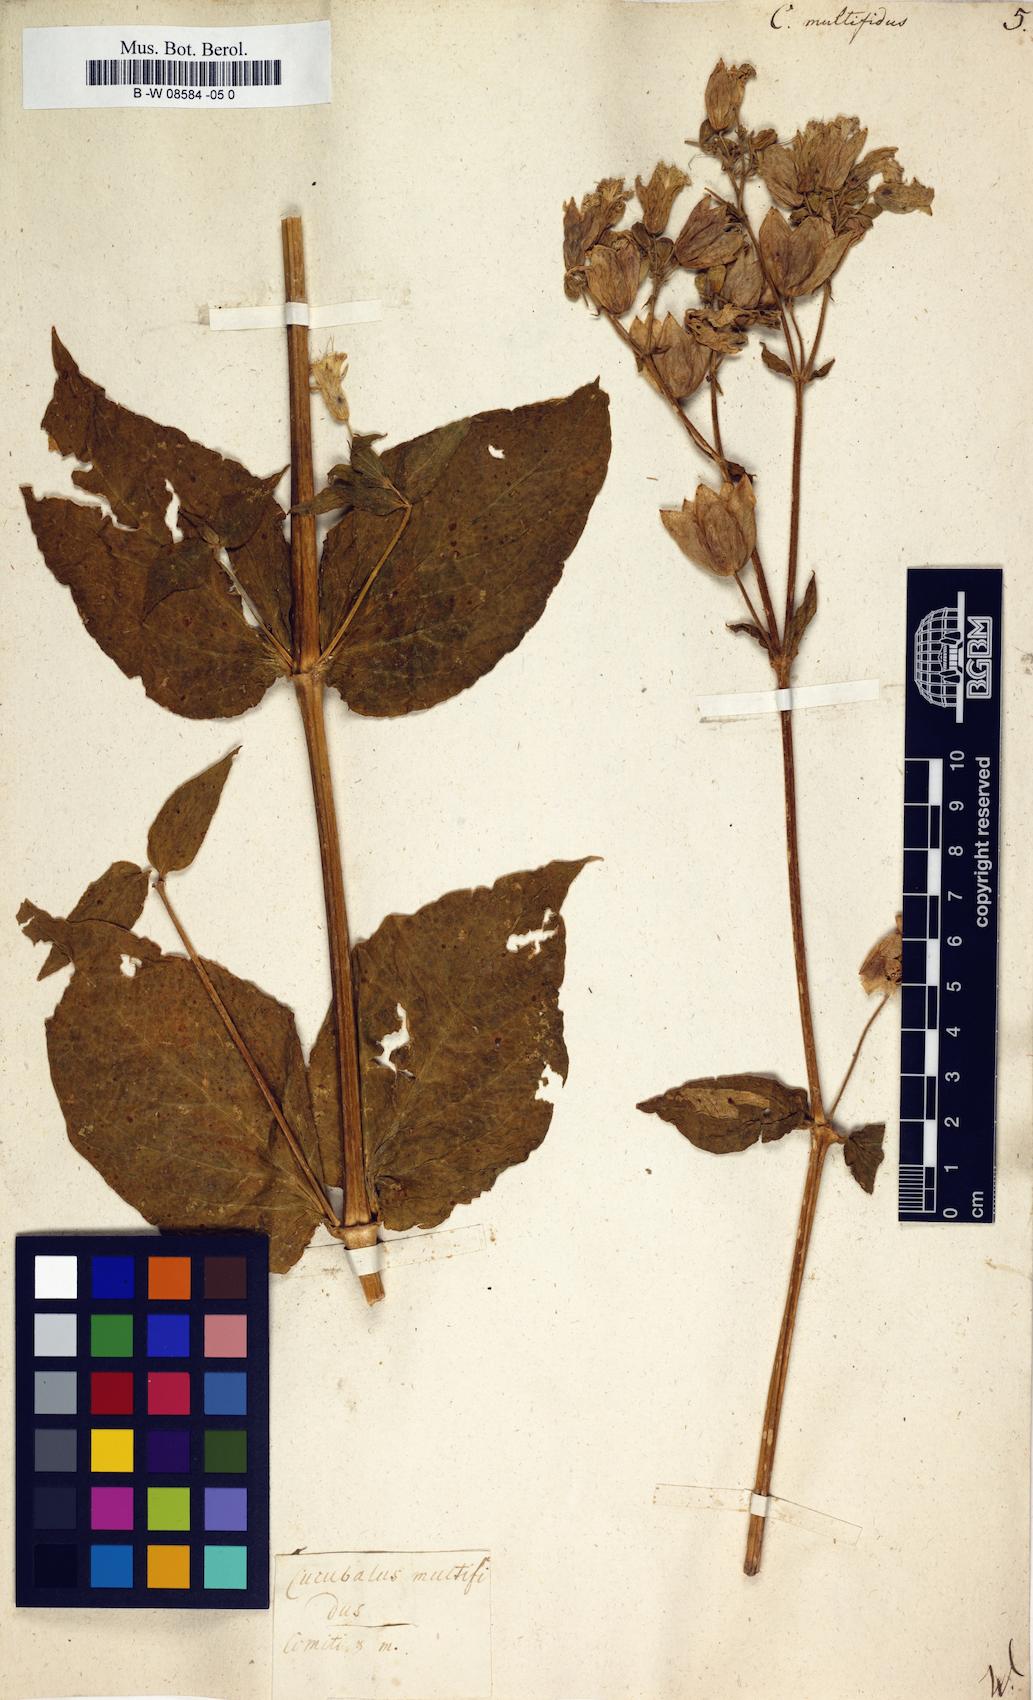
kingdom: Plantae
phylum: Tracheophyta
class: Magnoliopsida
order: Caryophyllales
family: Caryophyllaceae
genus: Silene
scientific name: Silene macrophylla
